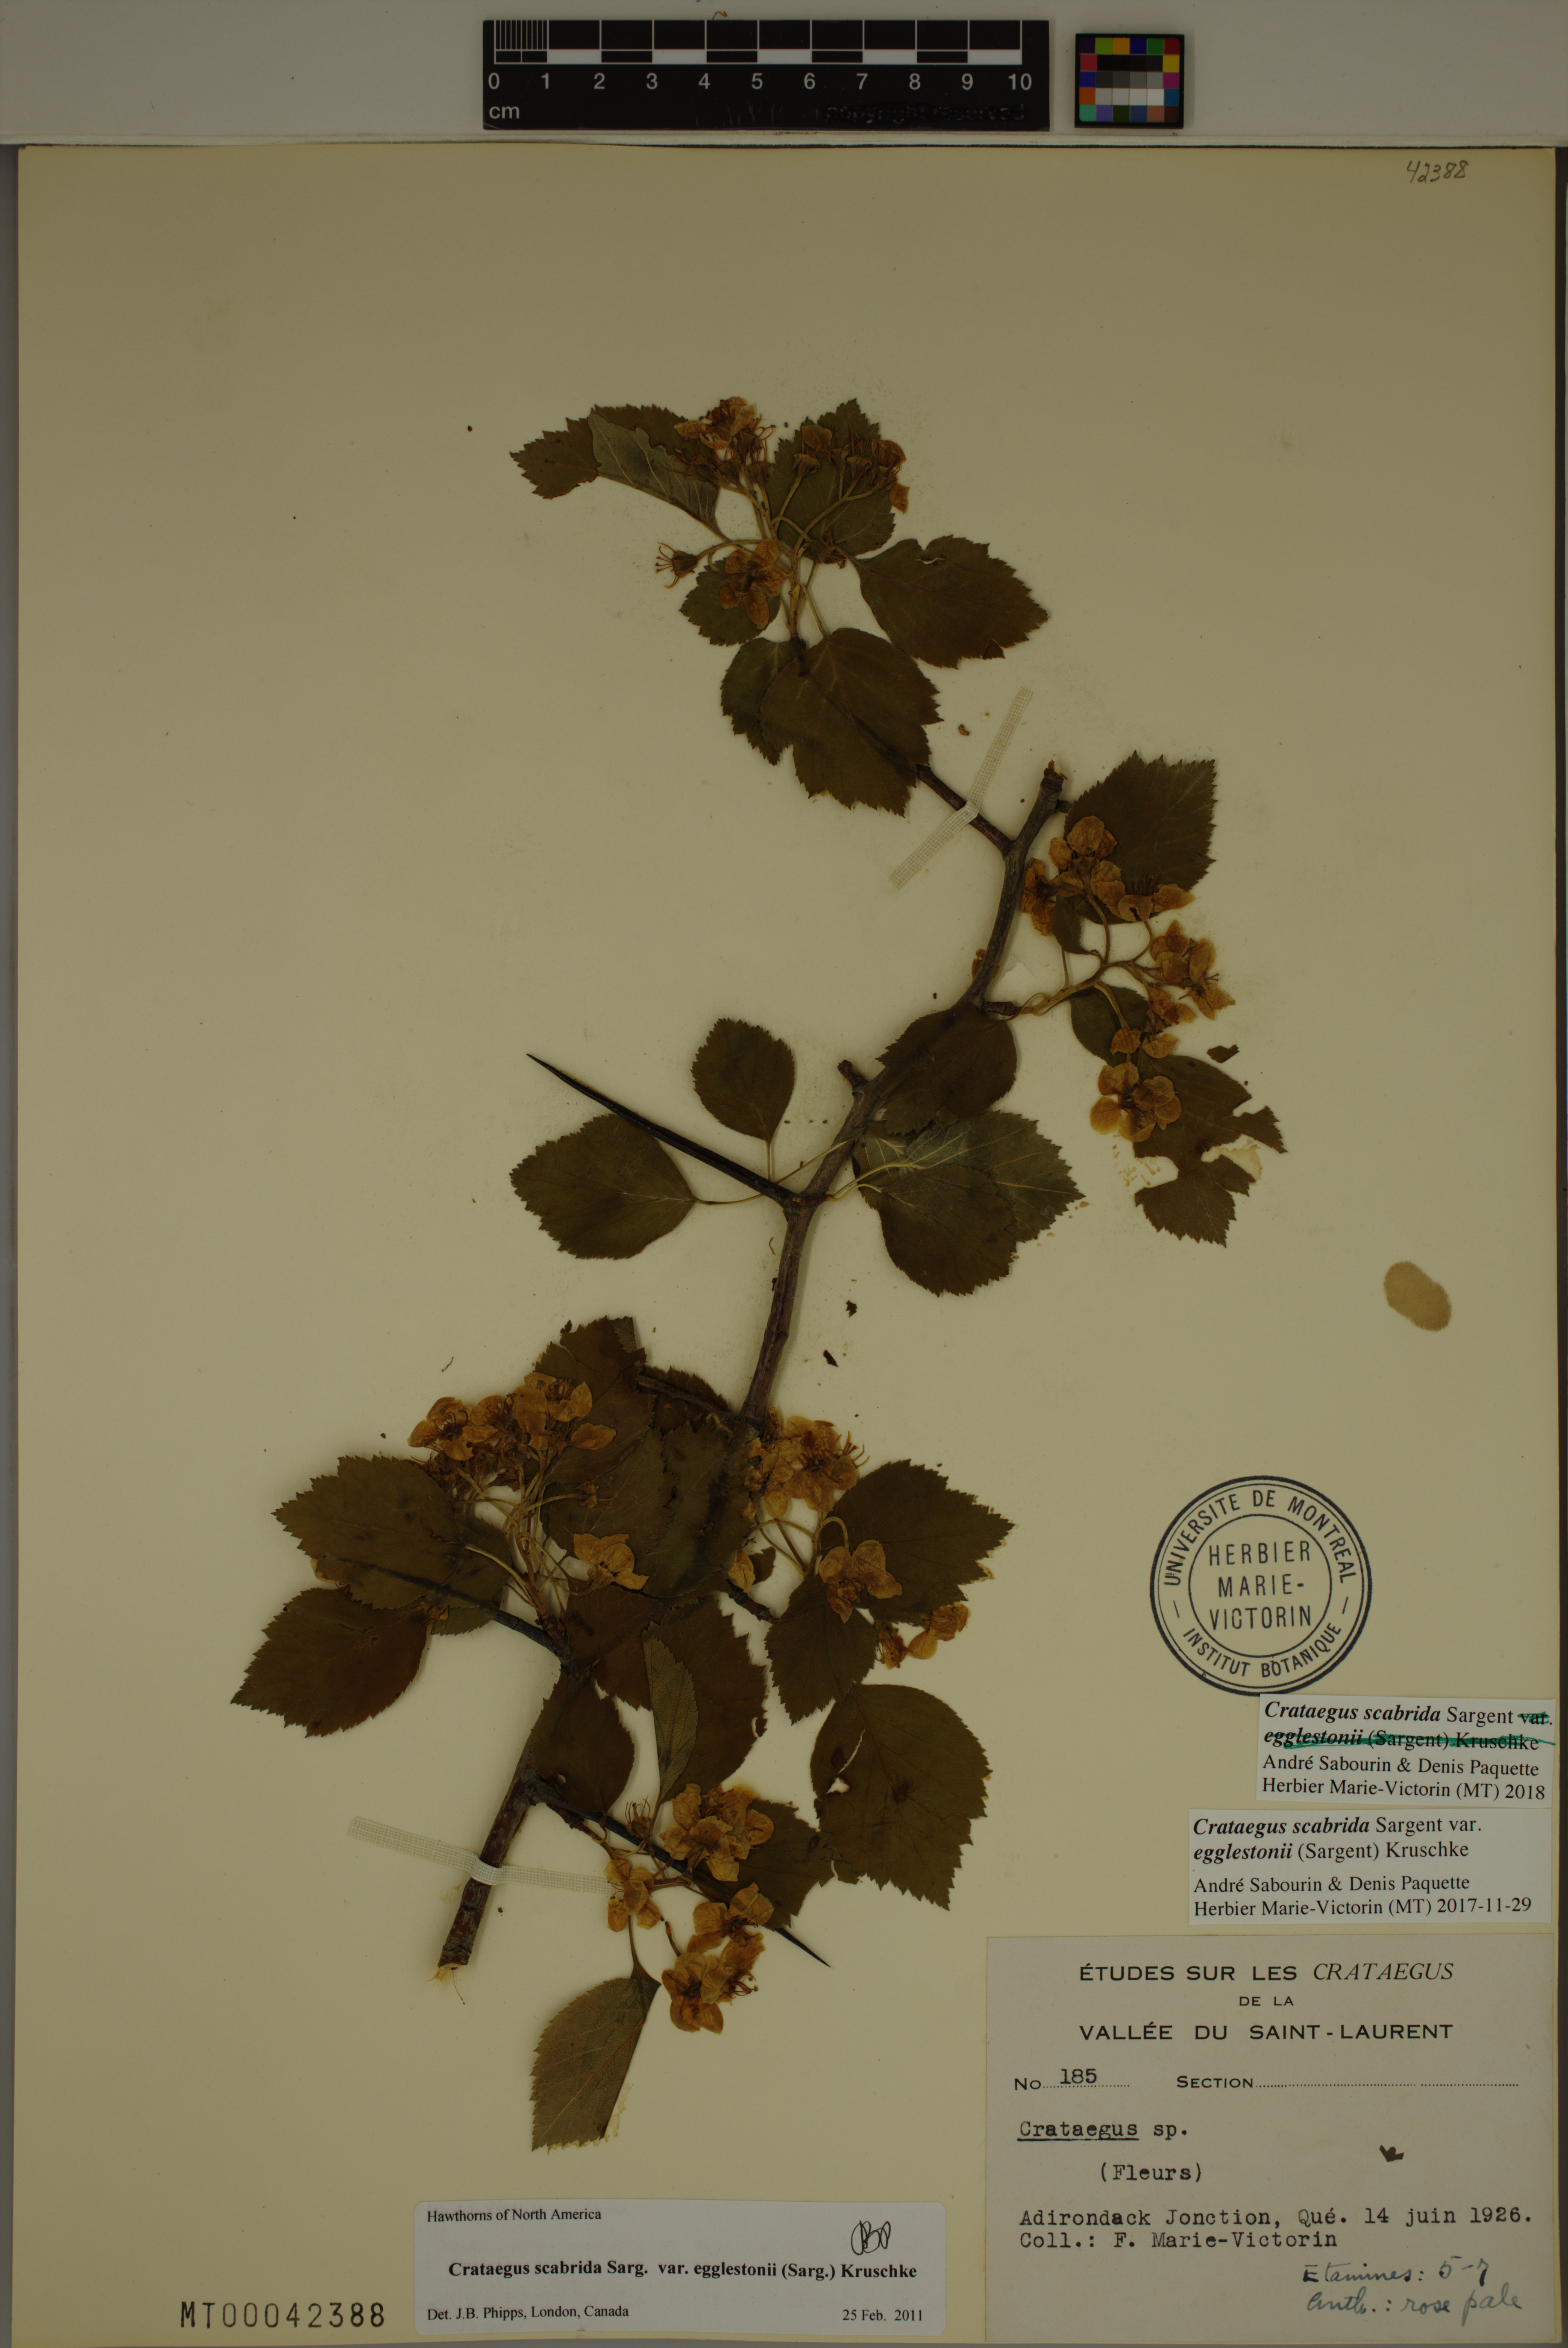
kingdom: Plantae
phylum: Tracheophyta
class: Magnoliopsida
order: Rosales
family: Rosaceae
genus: Crataegus
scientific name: Crataegus scabrida
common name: Rough hawthorn
